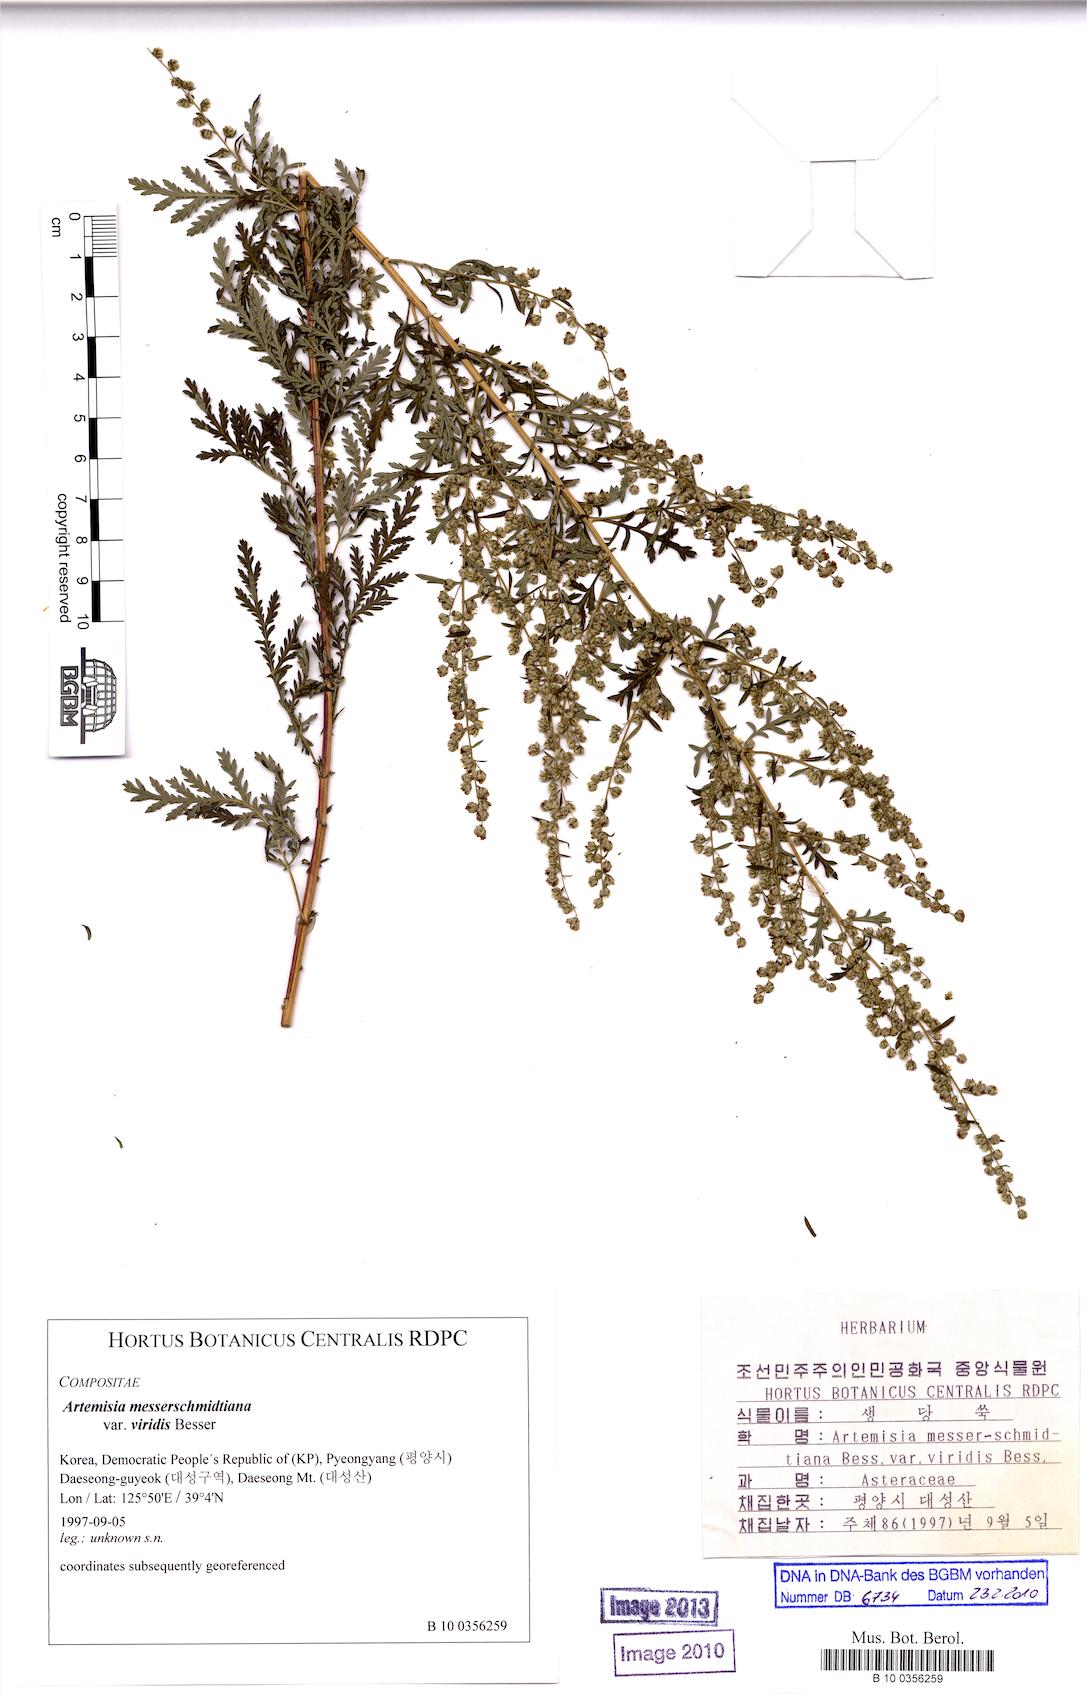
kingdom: Plantae
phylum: Tracheophyta
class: Magnoliopsida
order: Asterales
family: Asteraceae
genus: Artemisia
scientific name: Artemisia gmelinii
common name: Gmelin's wormwood
